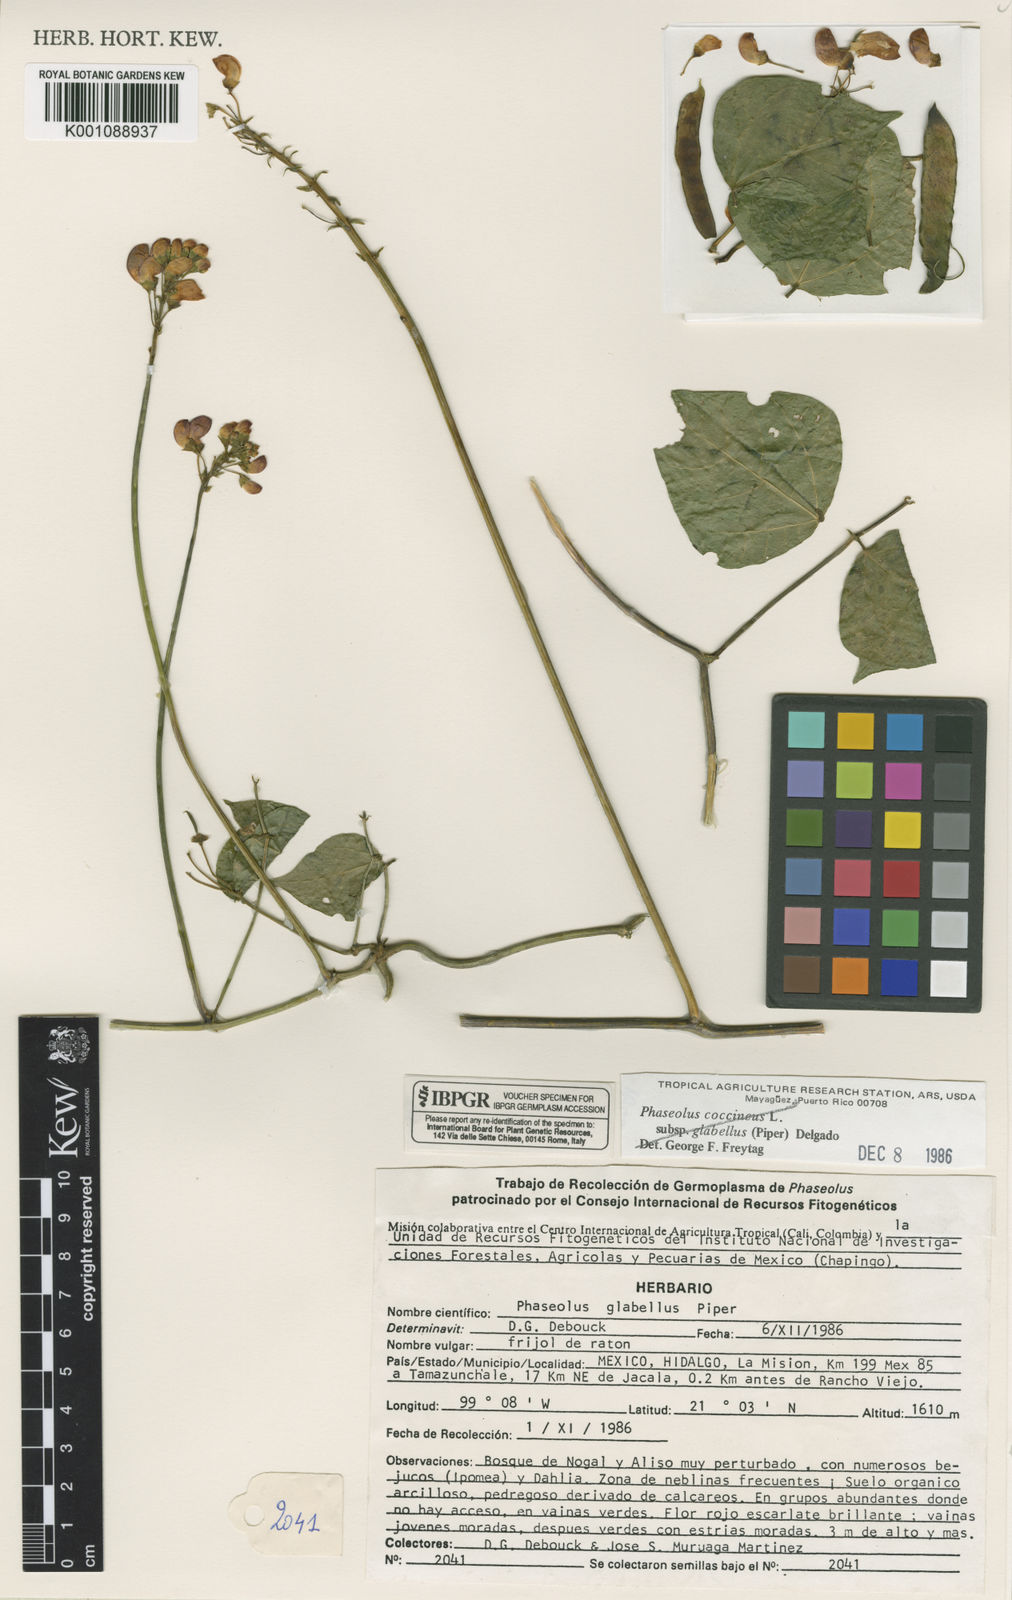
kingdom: Plantae
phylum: Tracheophyta
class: Magnoliopsida
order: Fabales
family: Fabaceae
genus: Phaseolus
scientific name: Phaseolus glabellus
